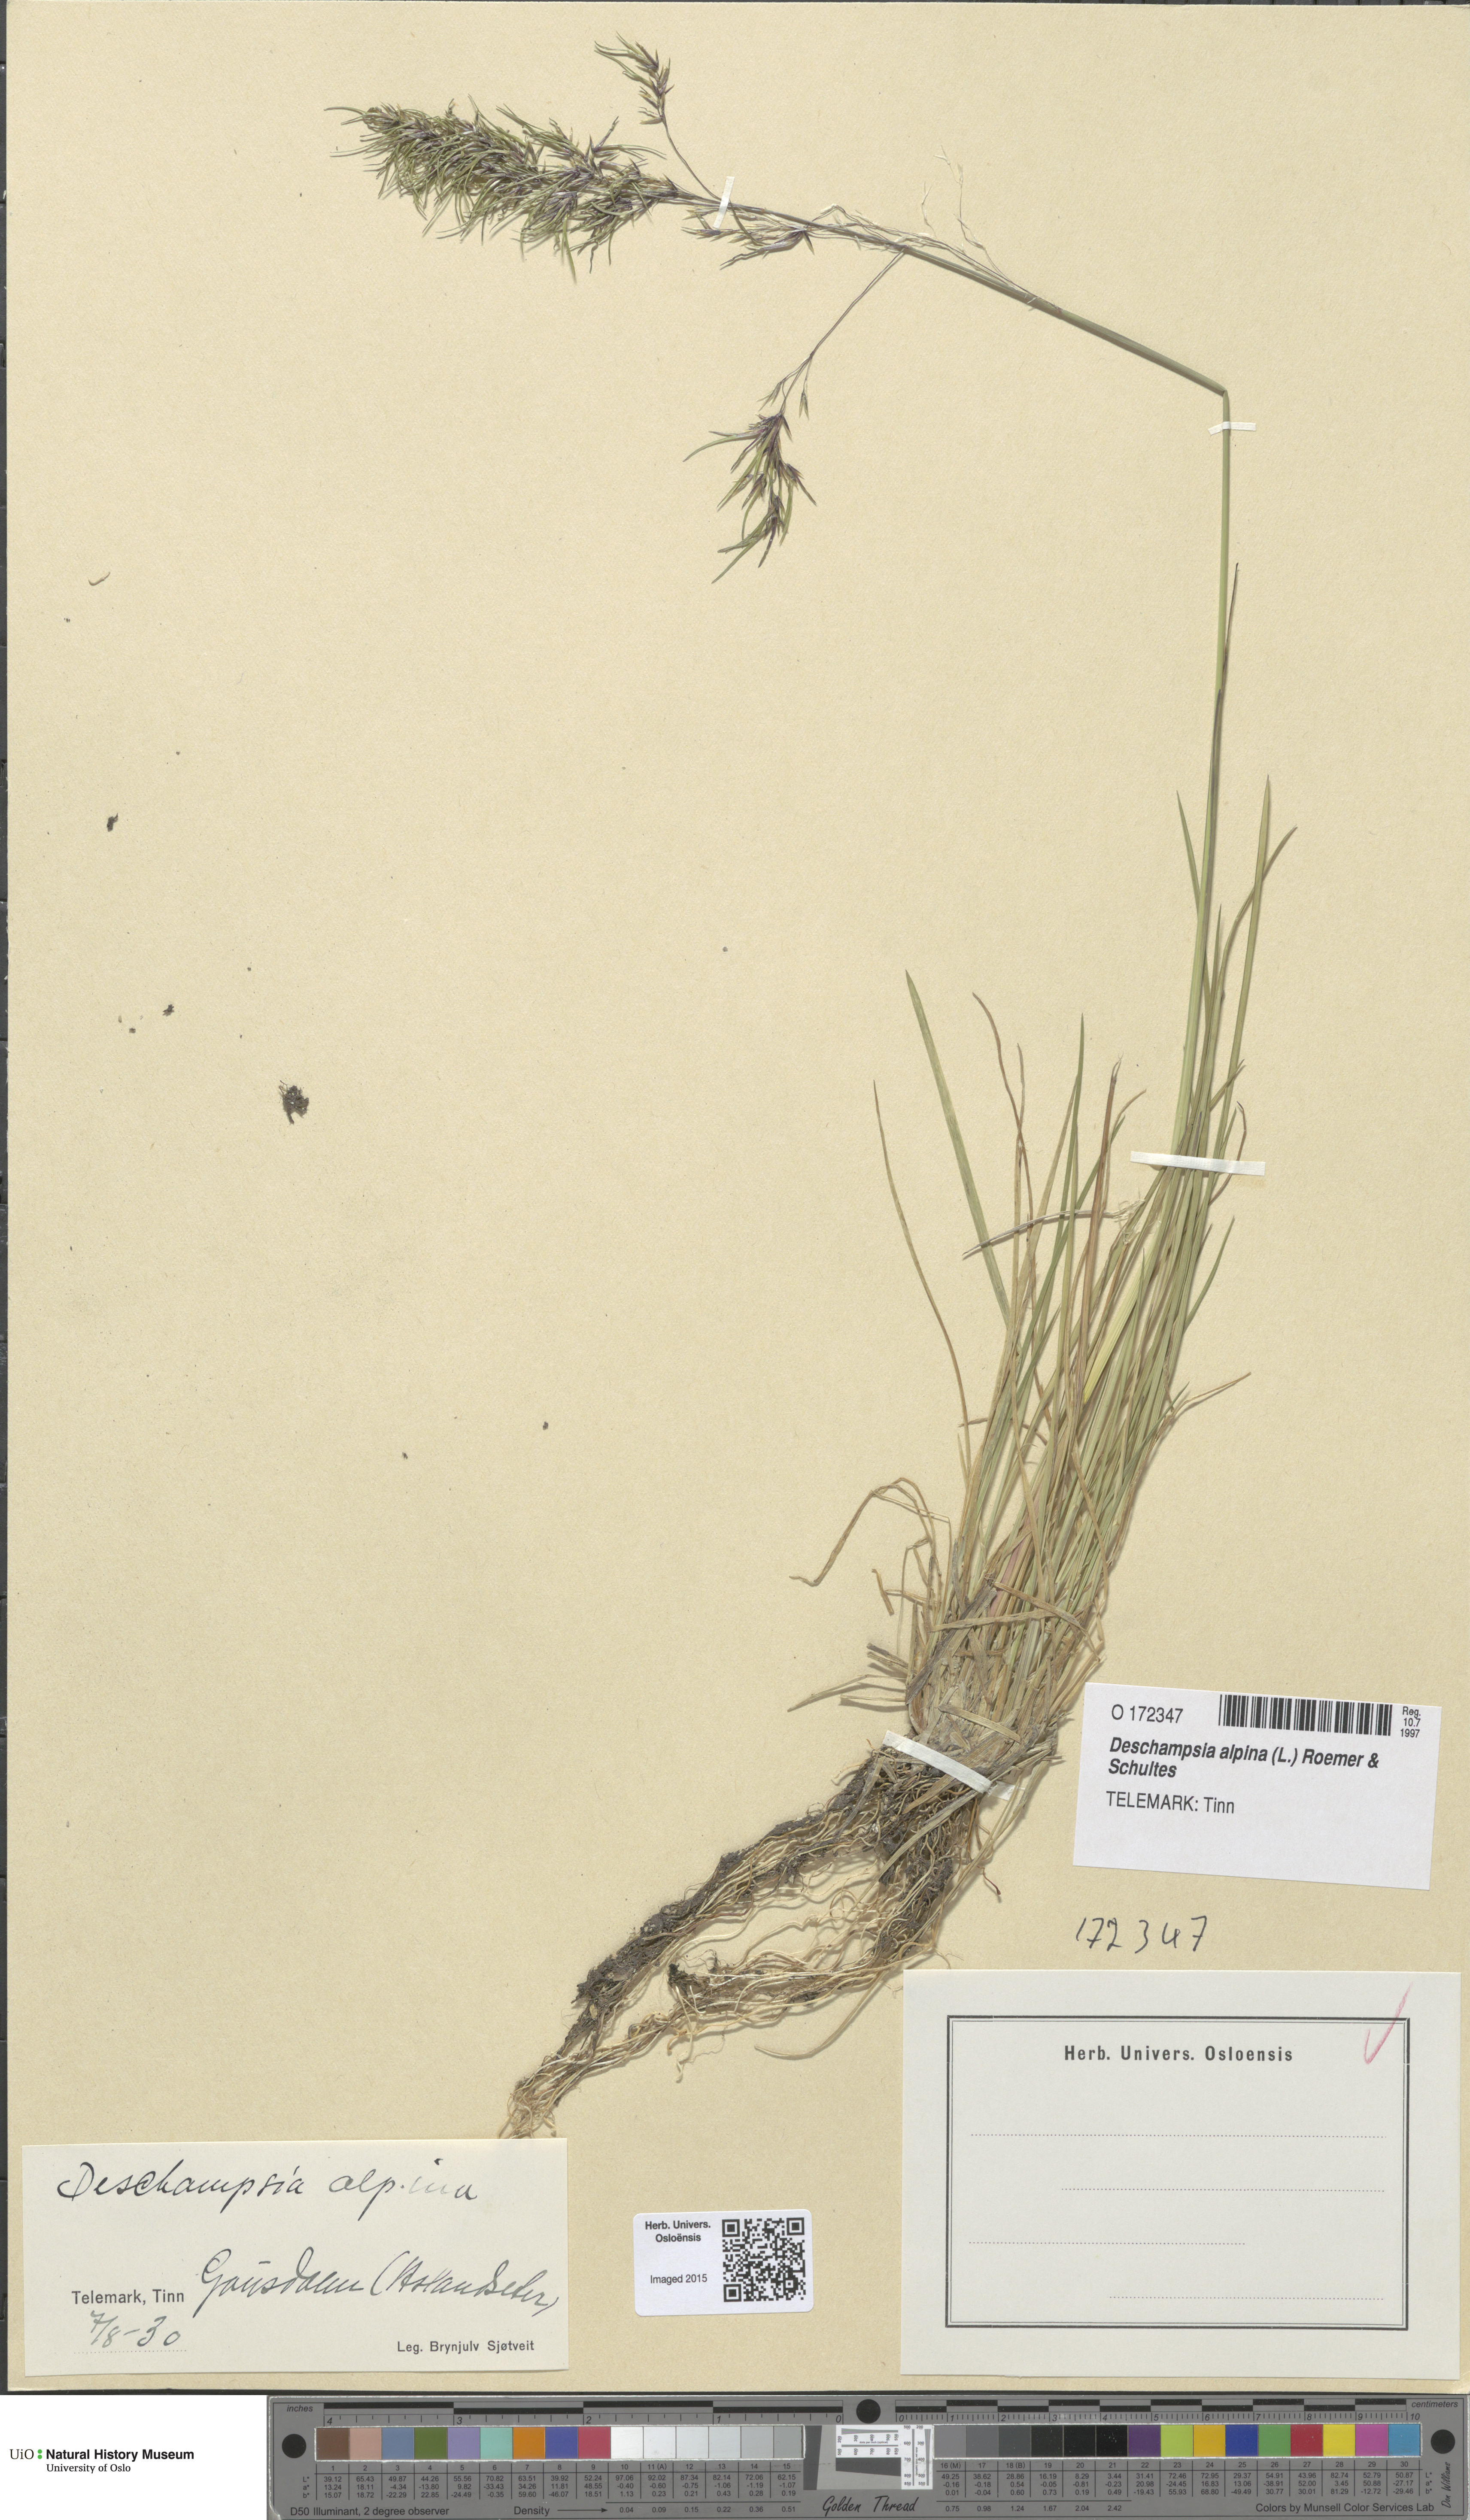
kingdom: Plantae
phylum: Tracheophyta
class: Liliopsida
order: Poales
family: Poaceae
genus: Deschampsia
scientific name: Deschampsia cespitosa
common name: Tufted hair-grass
